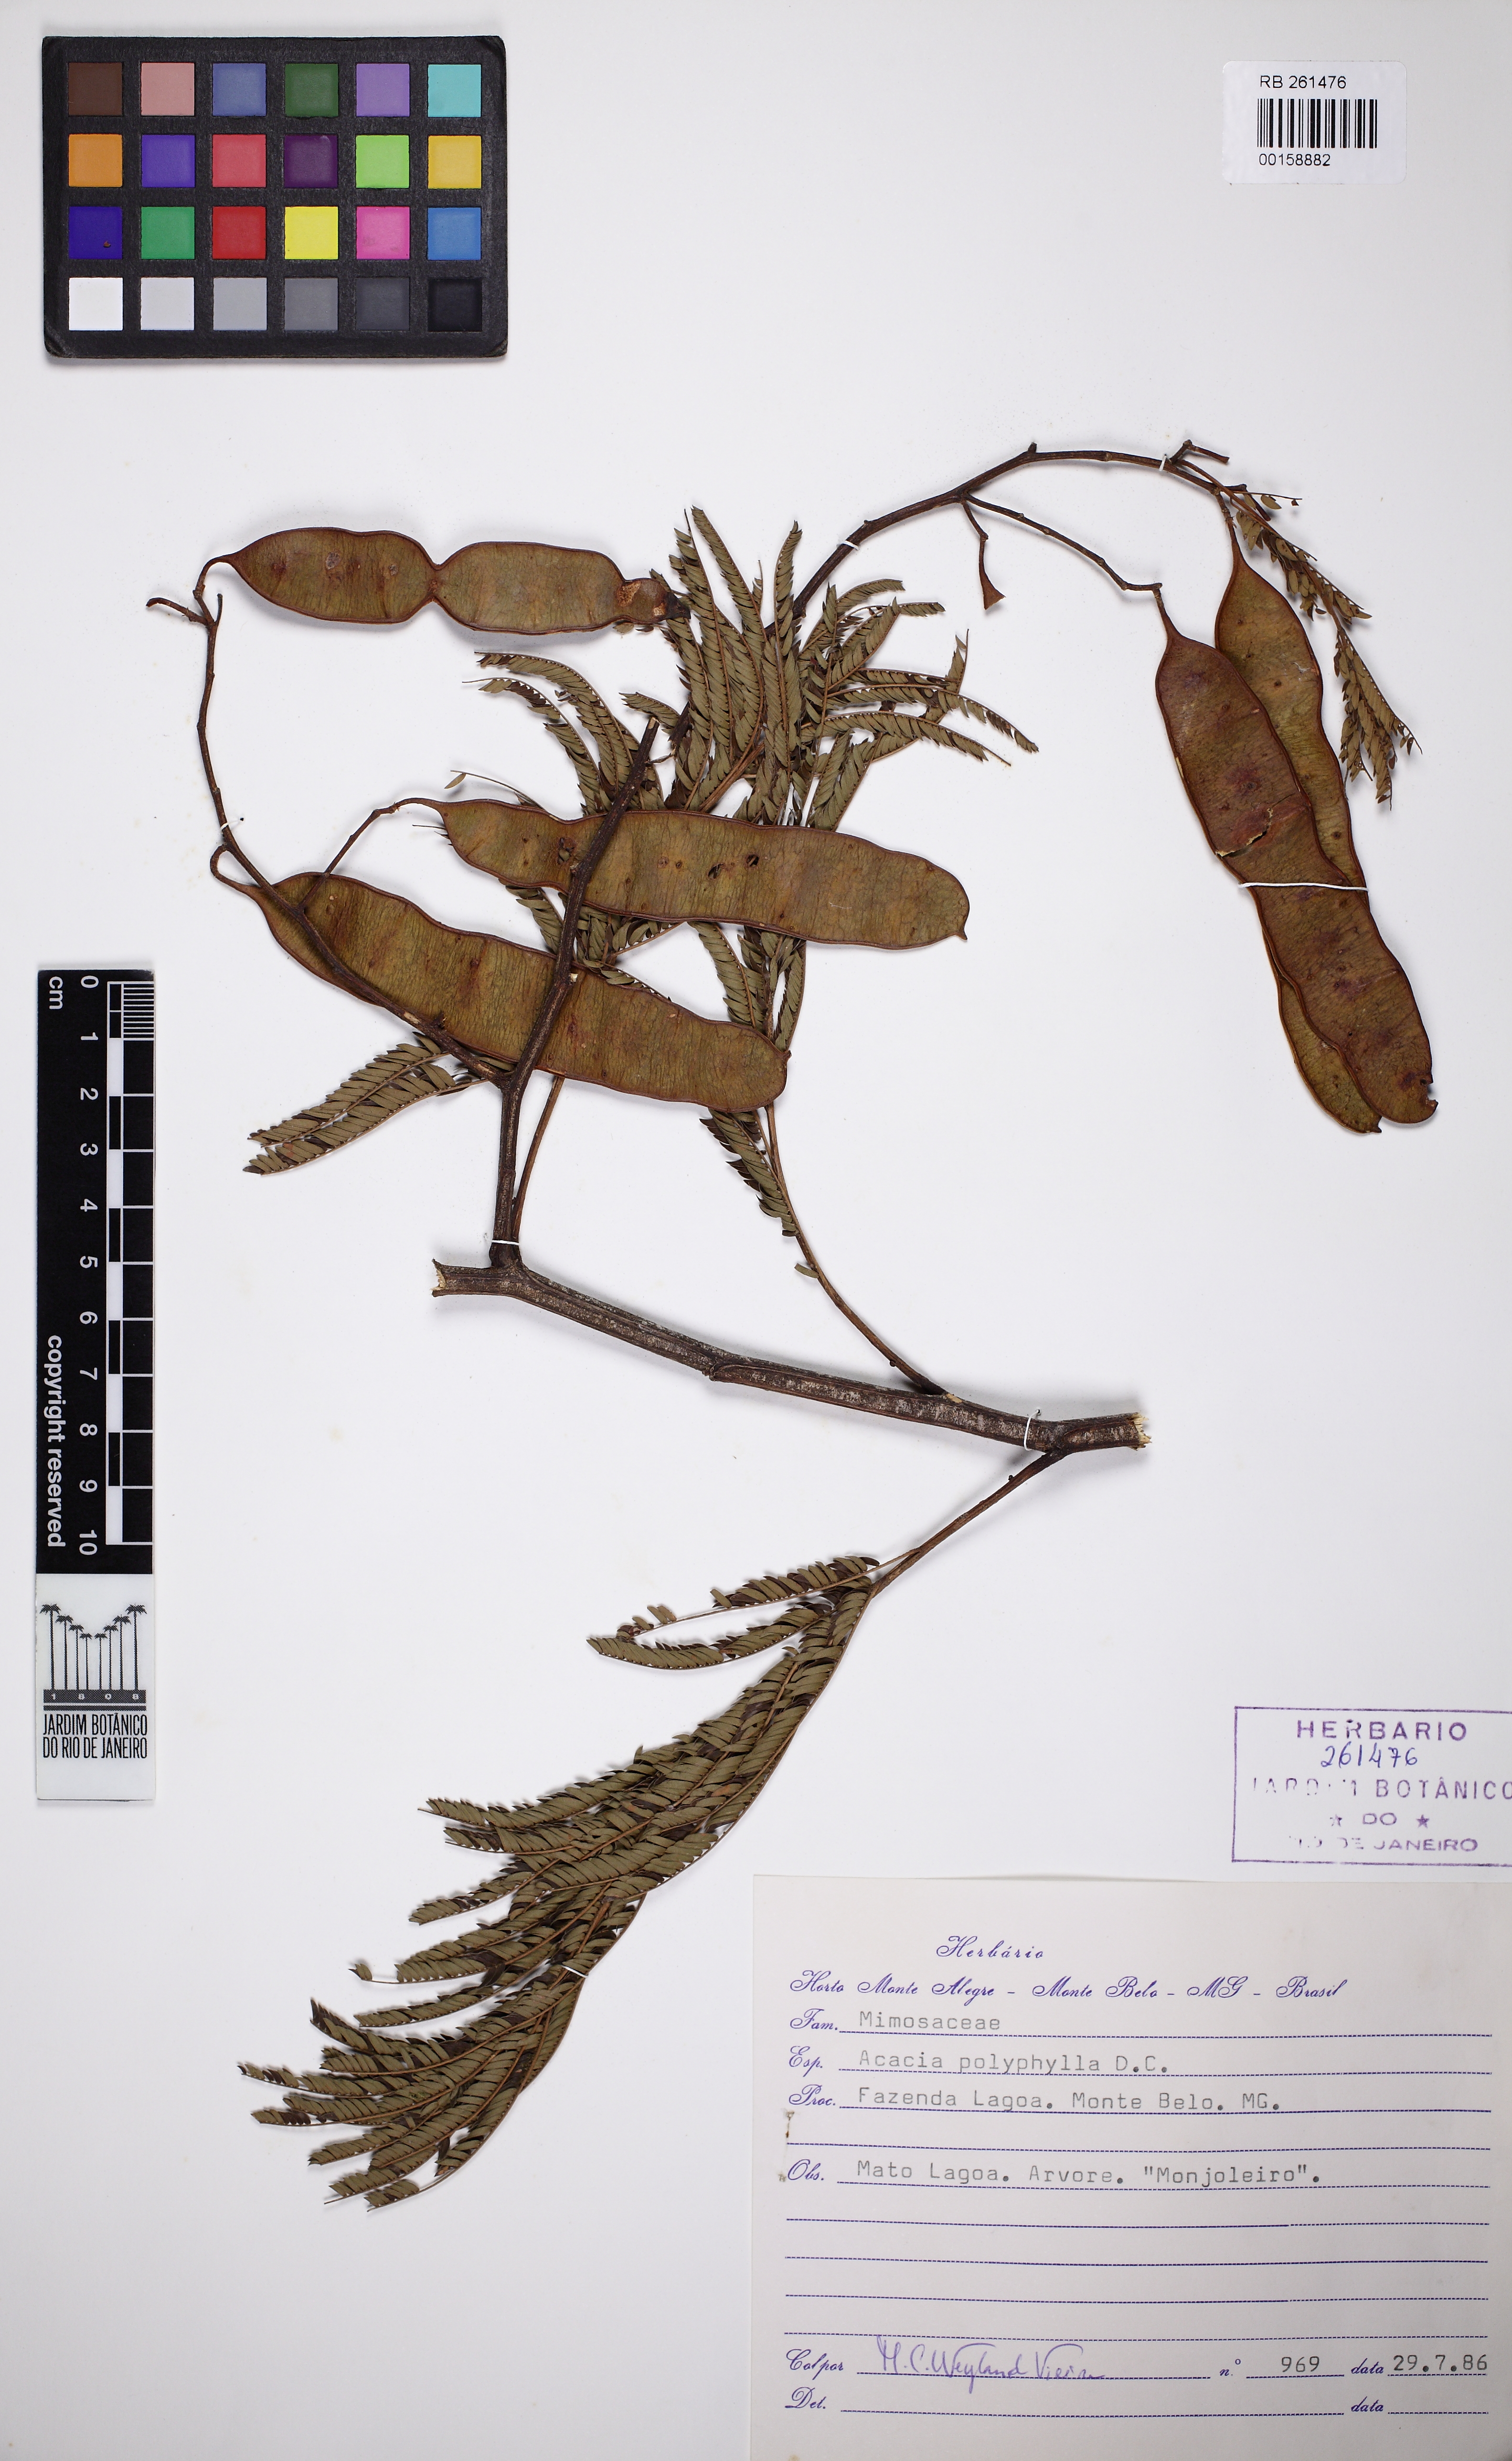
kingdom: Plantae
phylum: Tracheophyta
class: Magnoliopsida
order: Fabales
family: Fabaceae
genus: Senegalia
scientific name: Senegalia polyphylla
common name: White-tamarind
